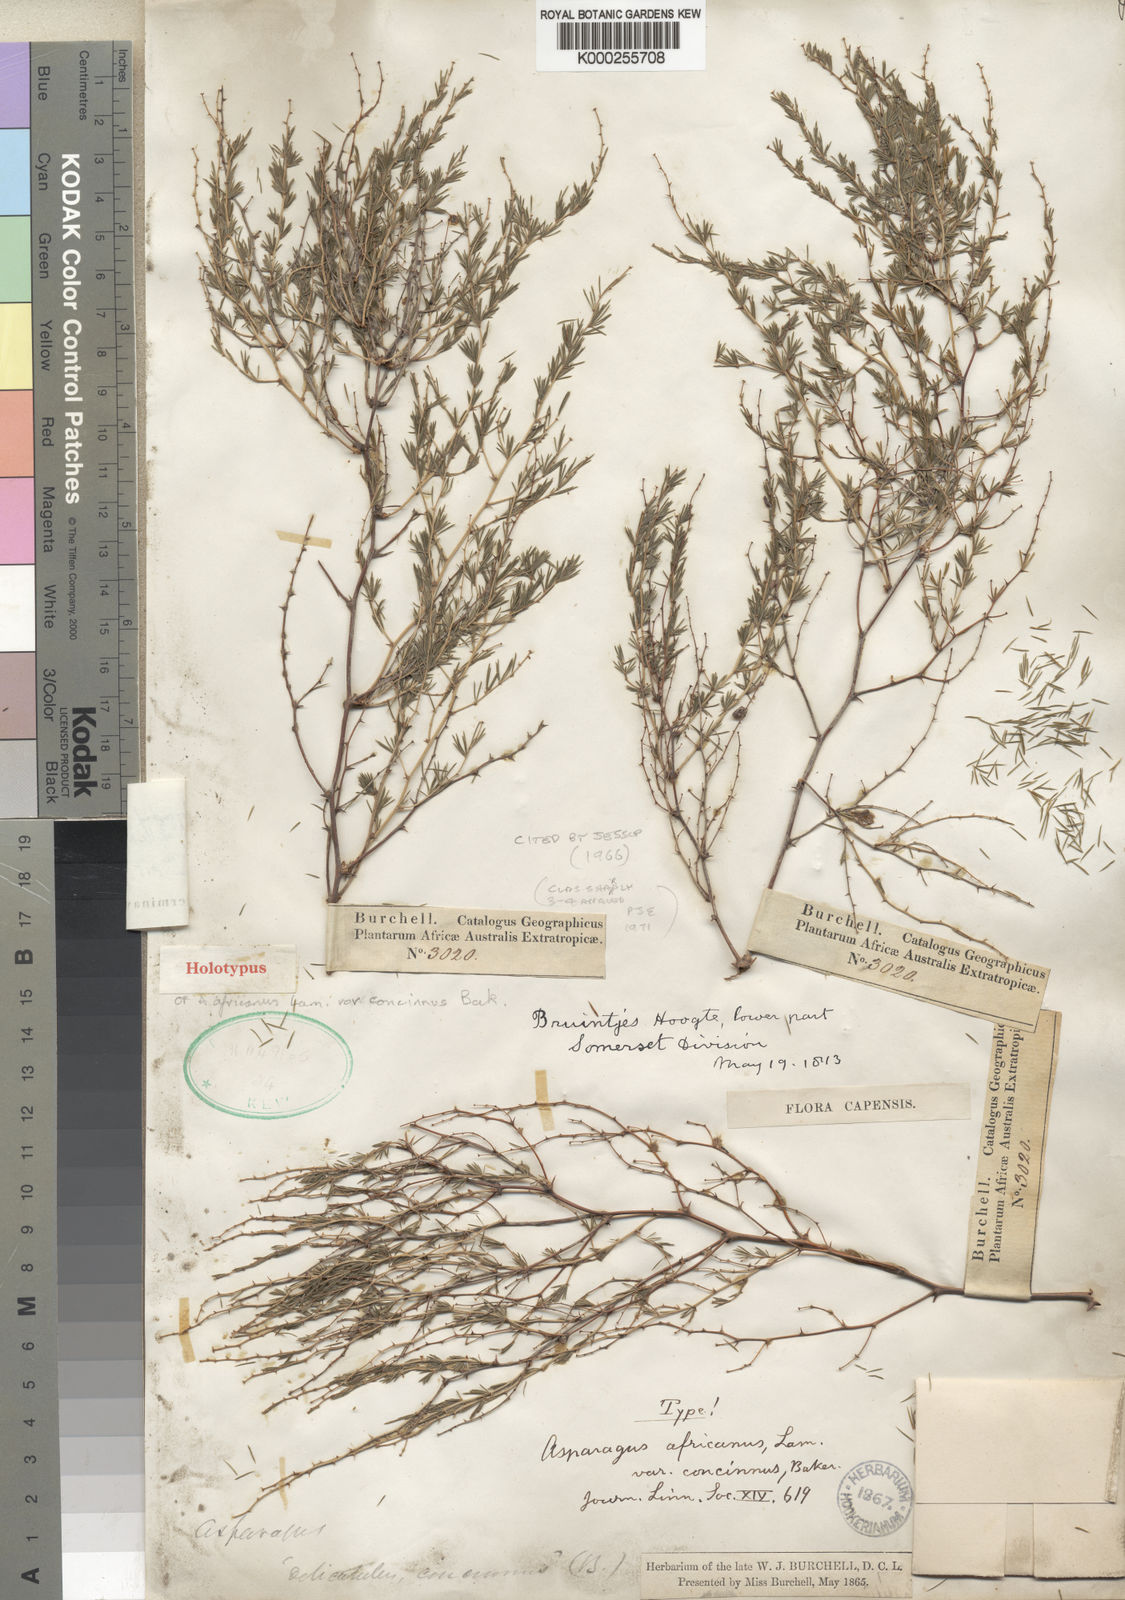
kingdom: Plantae
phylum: Tracheophyta
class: Liliopsida
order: Asparagales
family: Asparagaceae
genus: Asparagus
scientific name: Asparagus laricinus
